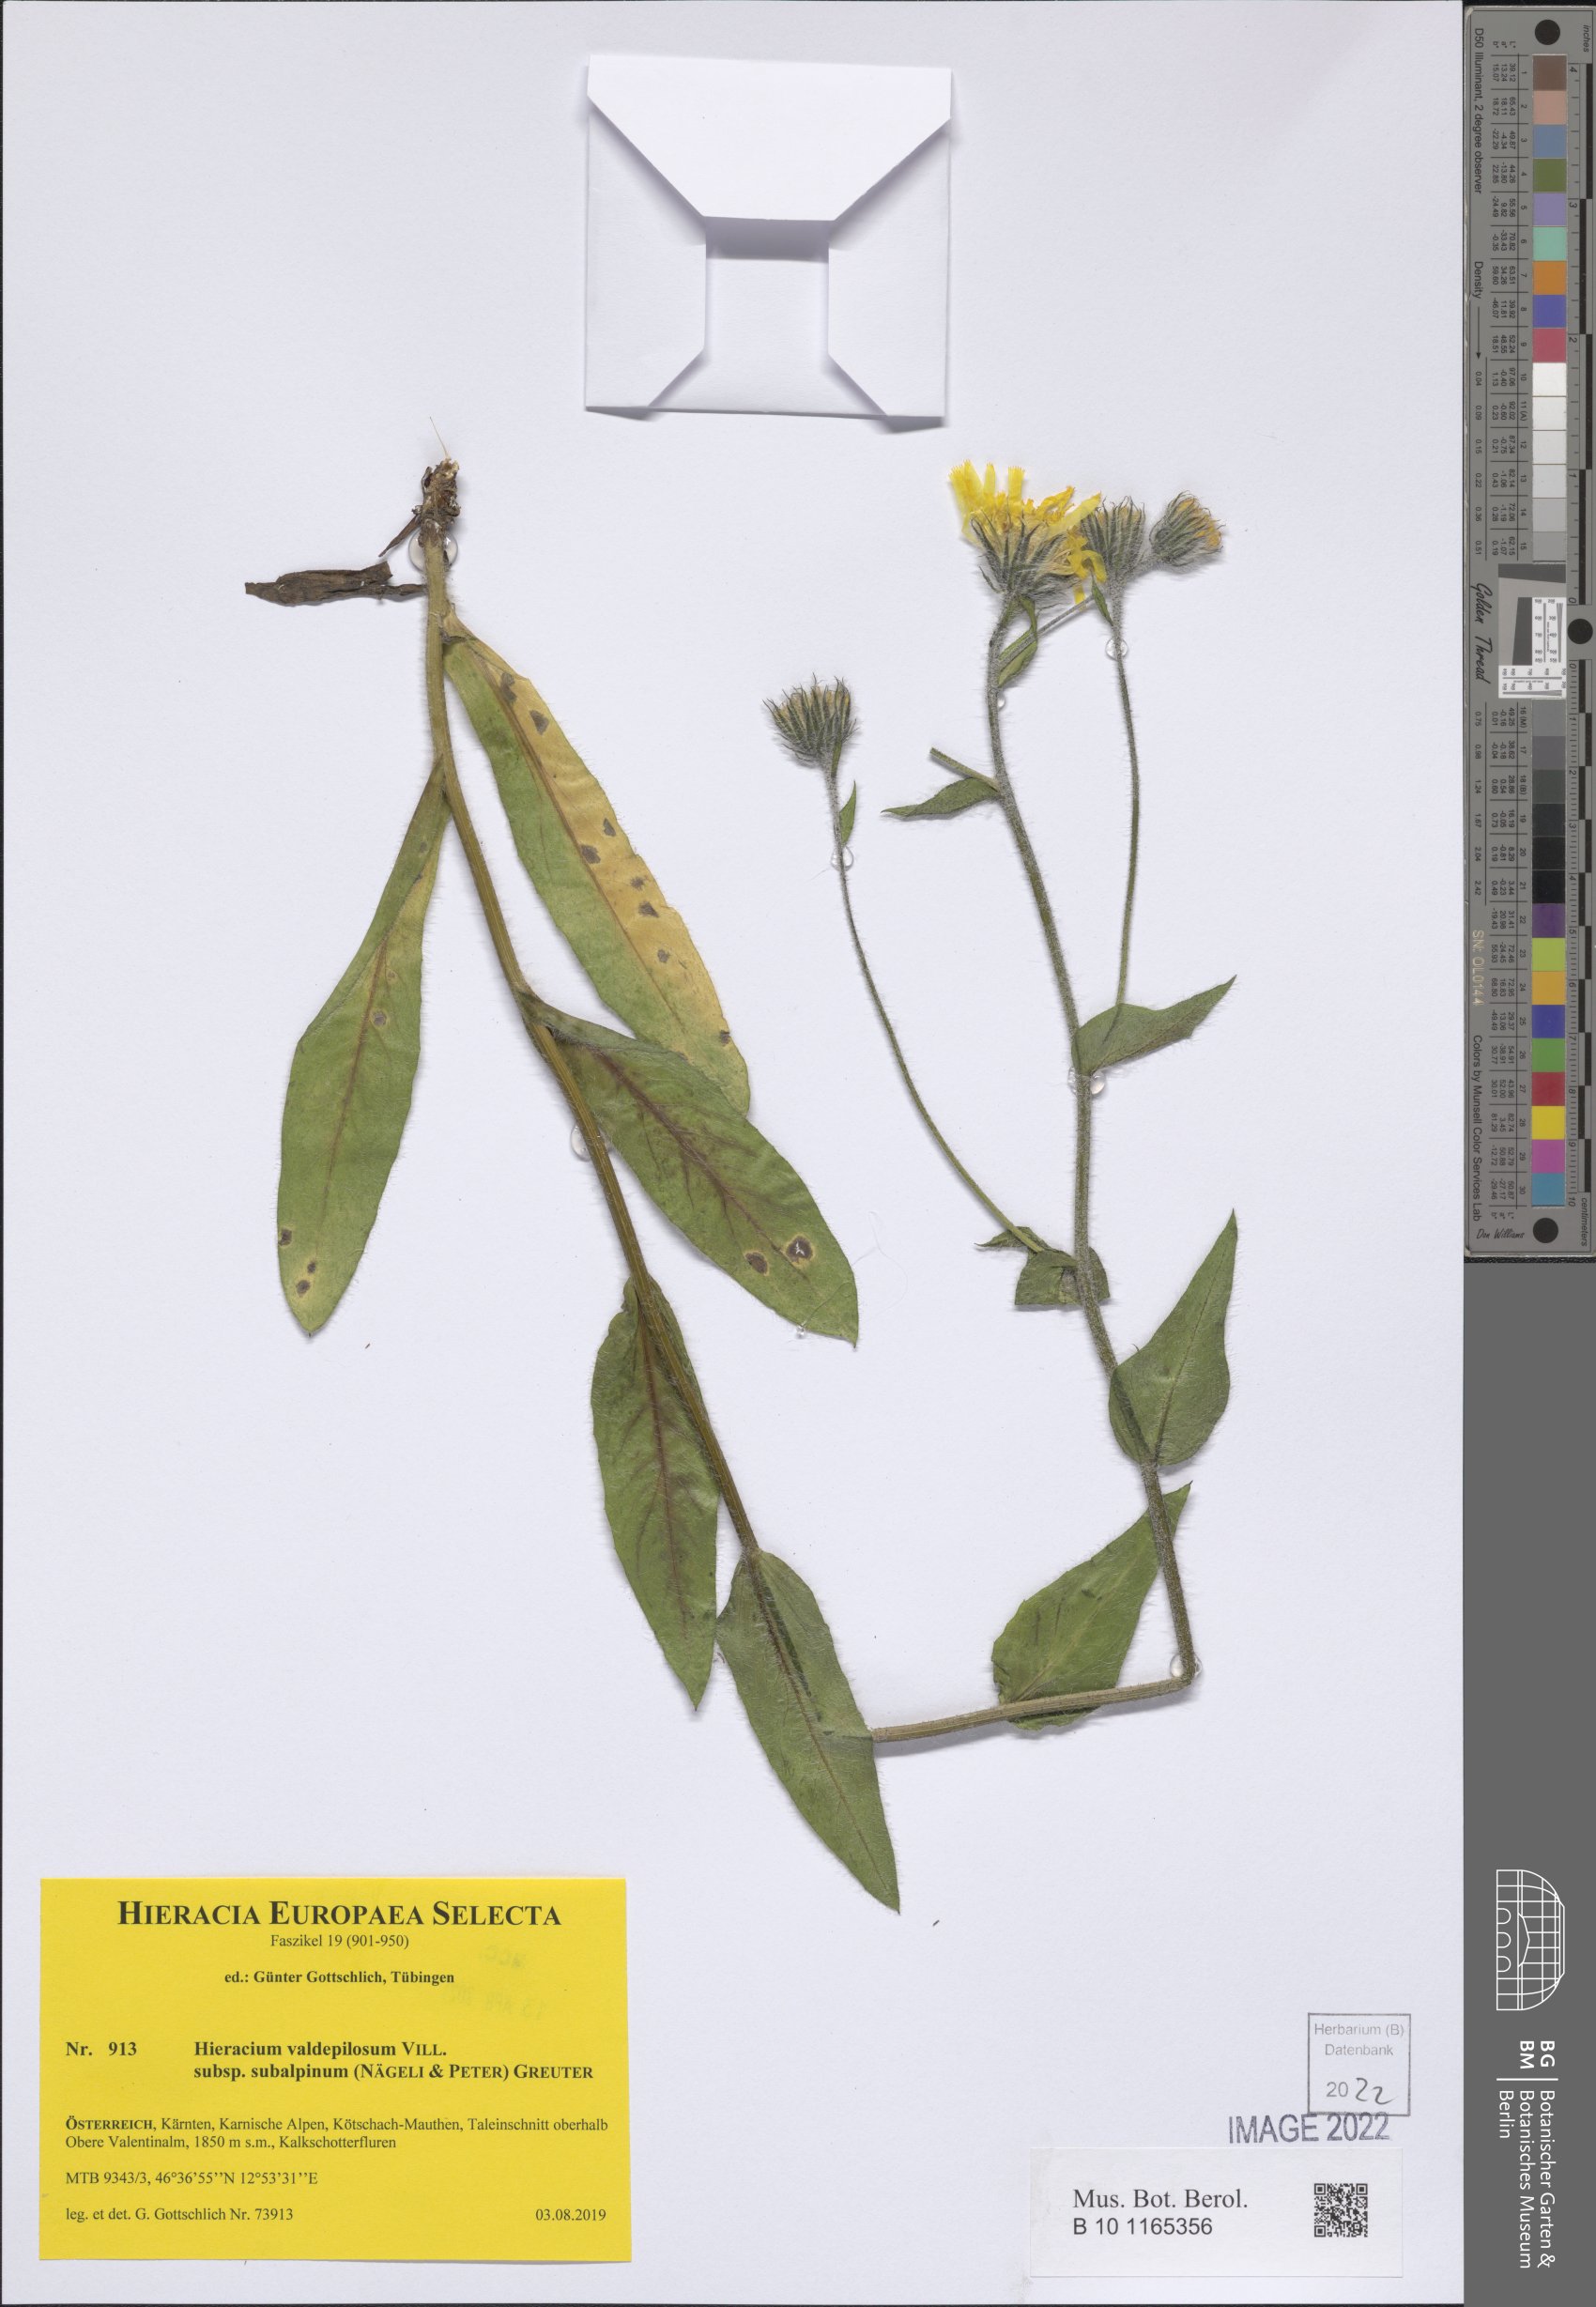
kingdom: Plantae
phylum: Tracheophyta
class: Magnoliopsida
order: Asterales
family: Asteraceae
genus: Hieracium
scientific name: Hieracium valdepilosum
